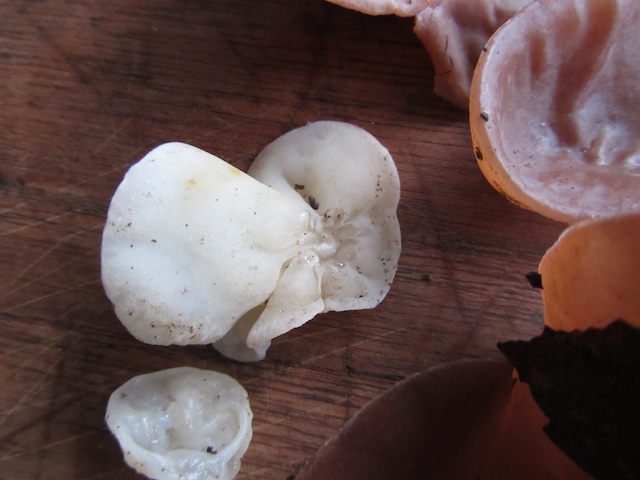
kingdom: Fungi
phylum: Basidiomycota
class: Agaricomycetes
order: Auriculariales
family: Auriculariaceae
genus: Auricularia
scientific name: Auricularia auricula-judae
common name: almindelig judasøre
